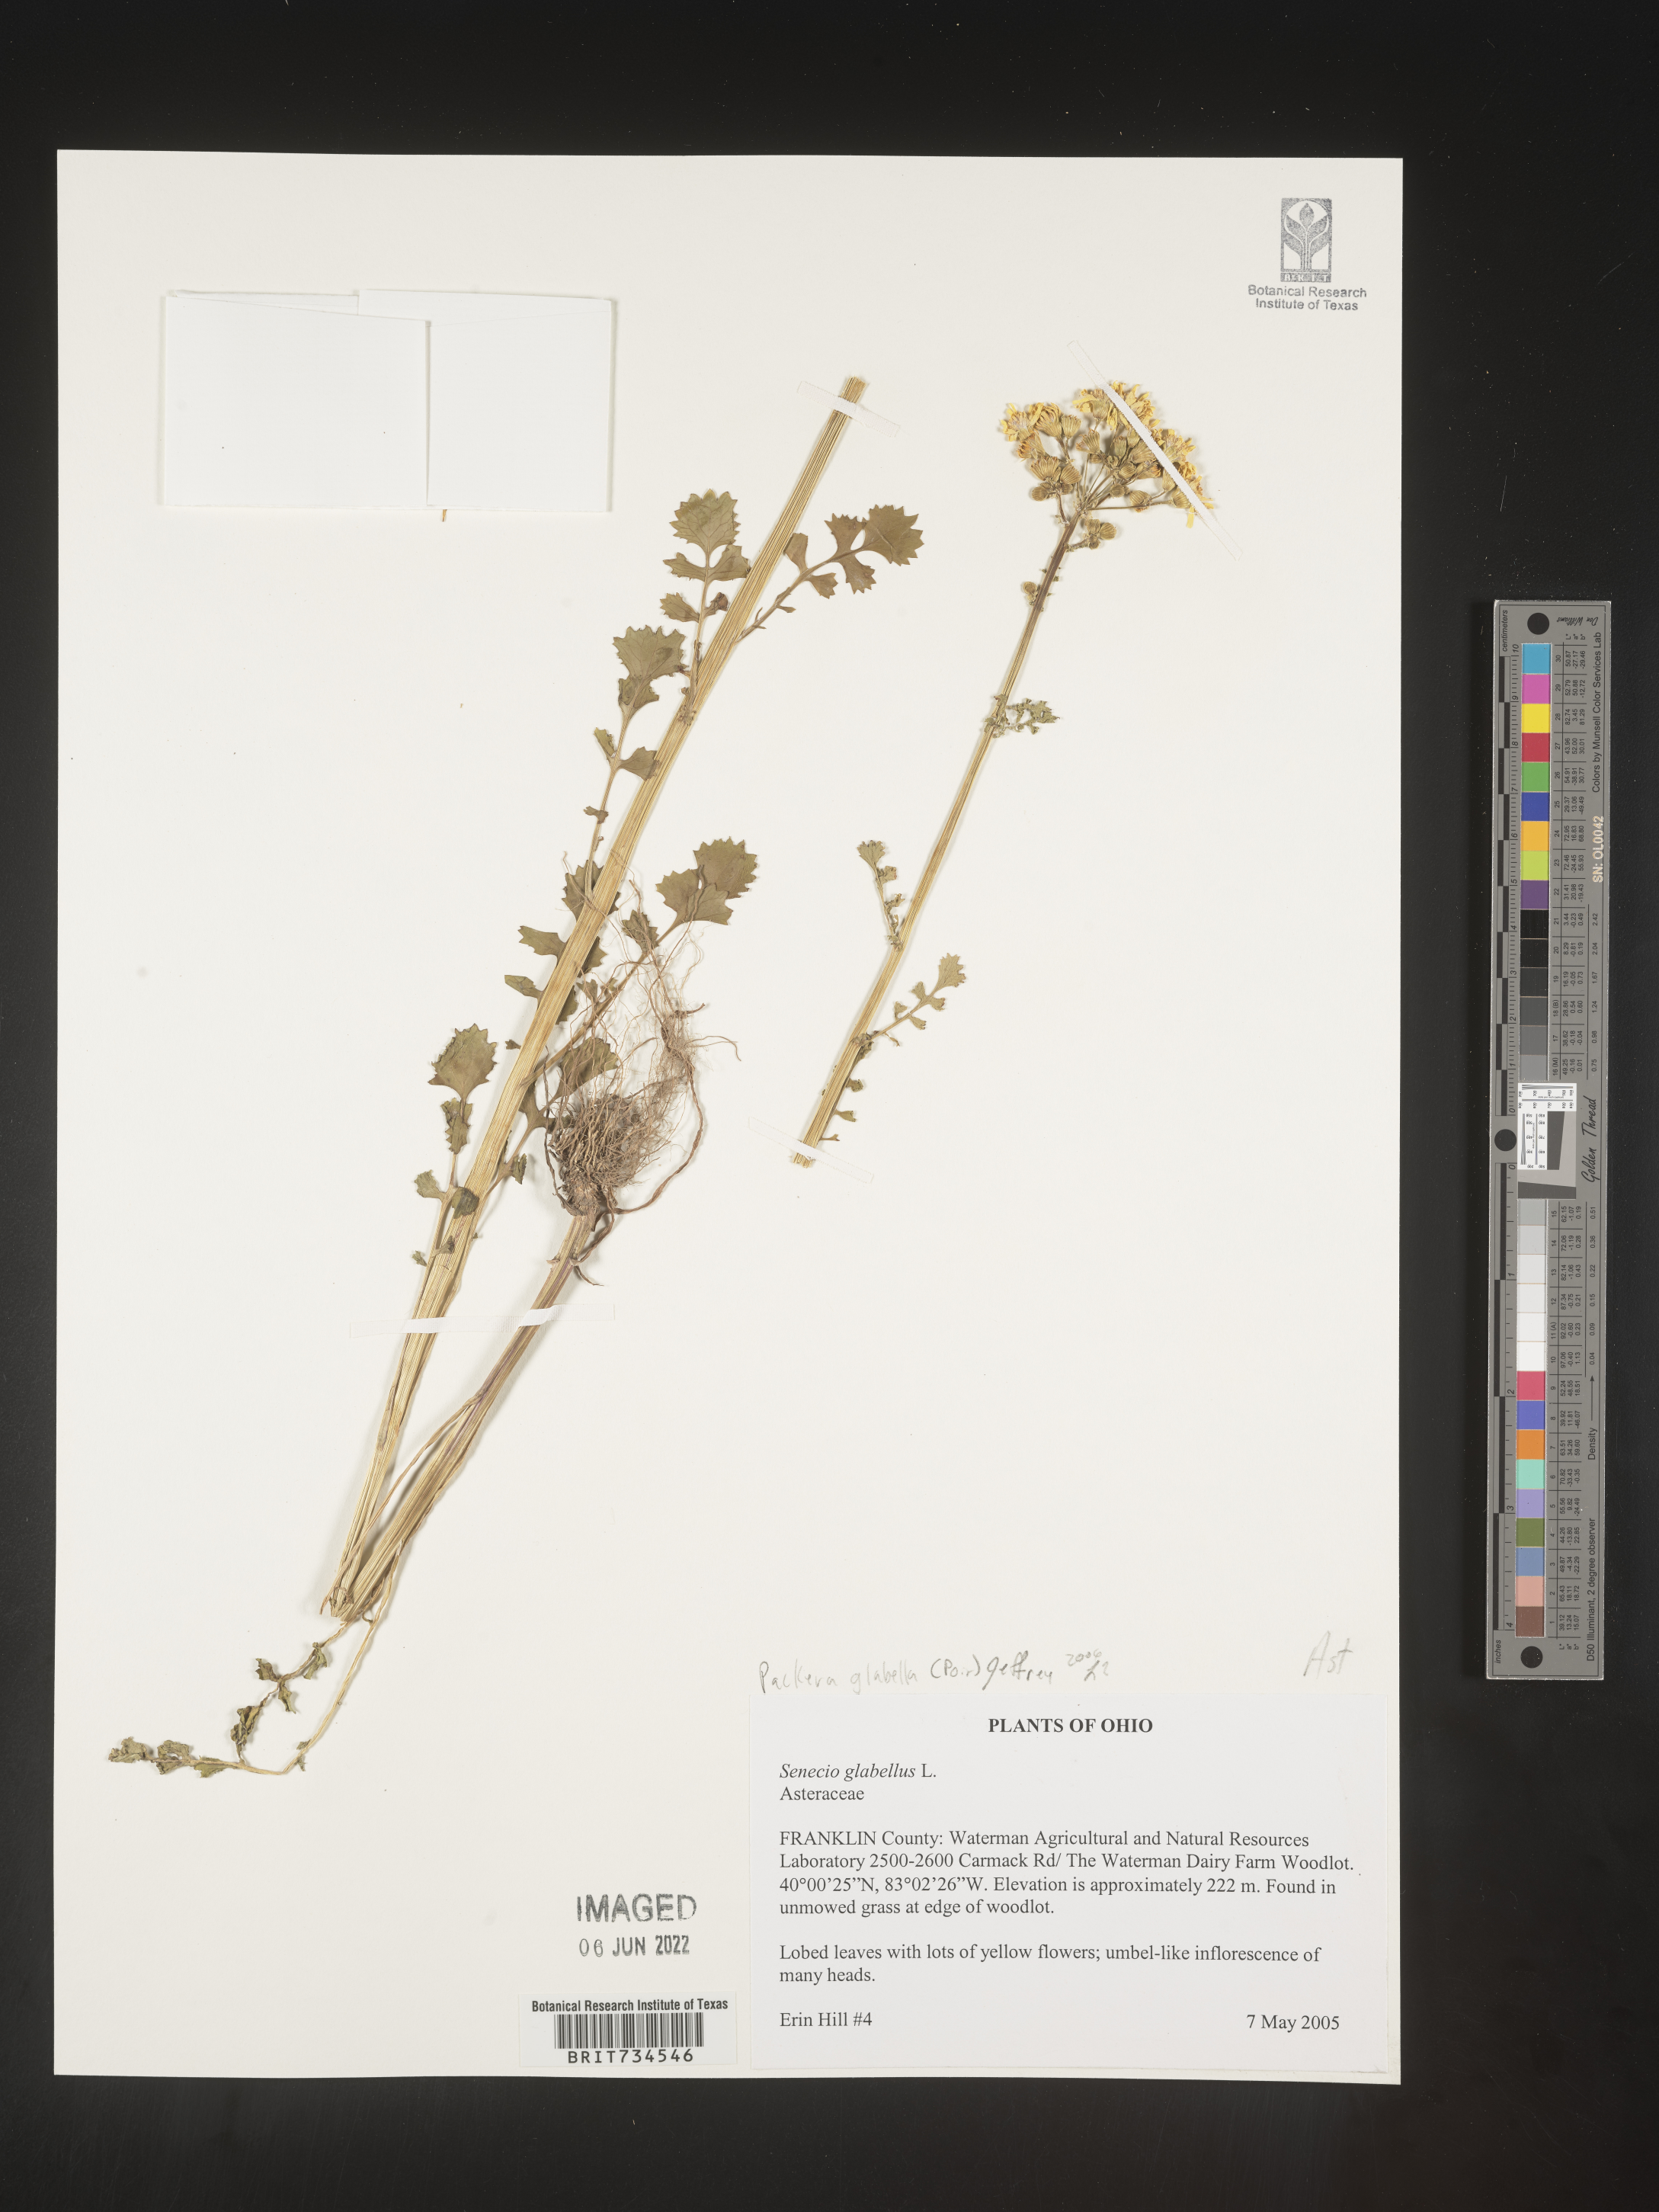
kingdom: Plantae
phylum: Tracheophyta
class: Magnoliopsida
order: Asterales
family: Asteraceae
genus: Packera
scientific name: Packera glabella
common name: Butterweed
